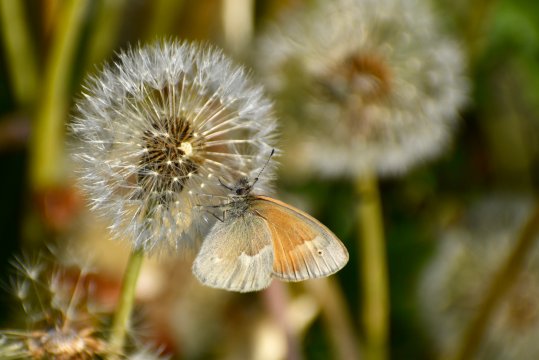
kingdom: Animalia
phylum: Arthropoda
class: Insecta
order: Lepidoptera
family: Nymphalidae
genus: Coenonympha
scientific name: Coenonympha california
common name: California Ringlet
